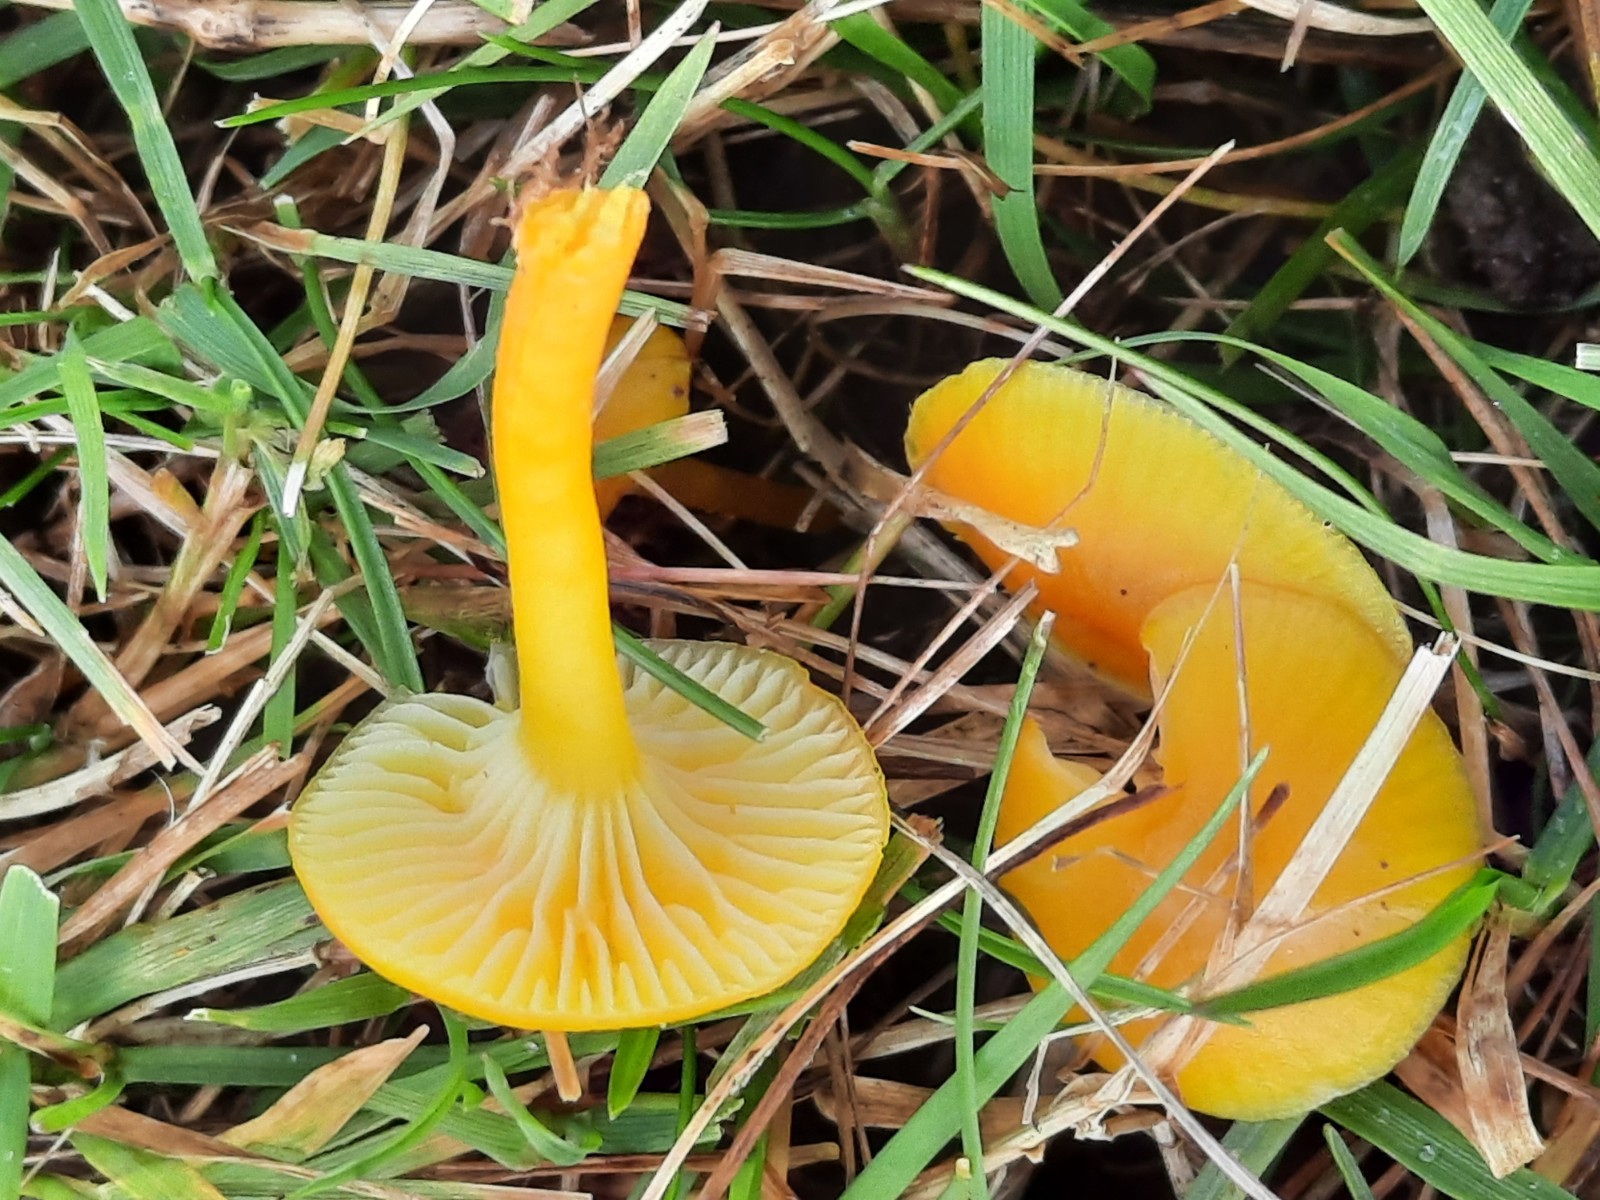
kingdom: Fungi
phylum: Basidiomycota
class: Agaricomycetes
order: Agaricales
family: Hygrophoraceae
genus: Hygrocybe
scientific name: Hygrocybe ceracea
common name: voksgul vokshat
